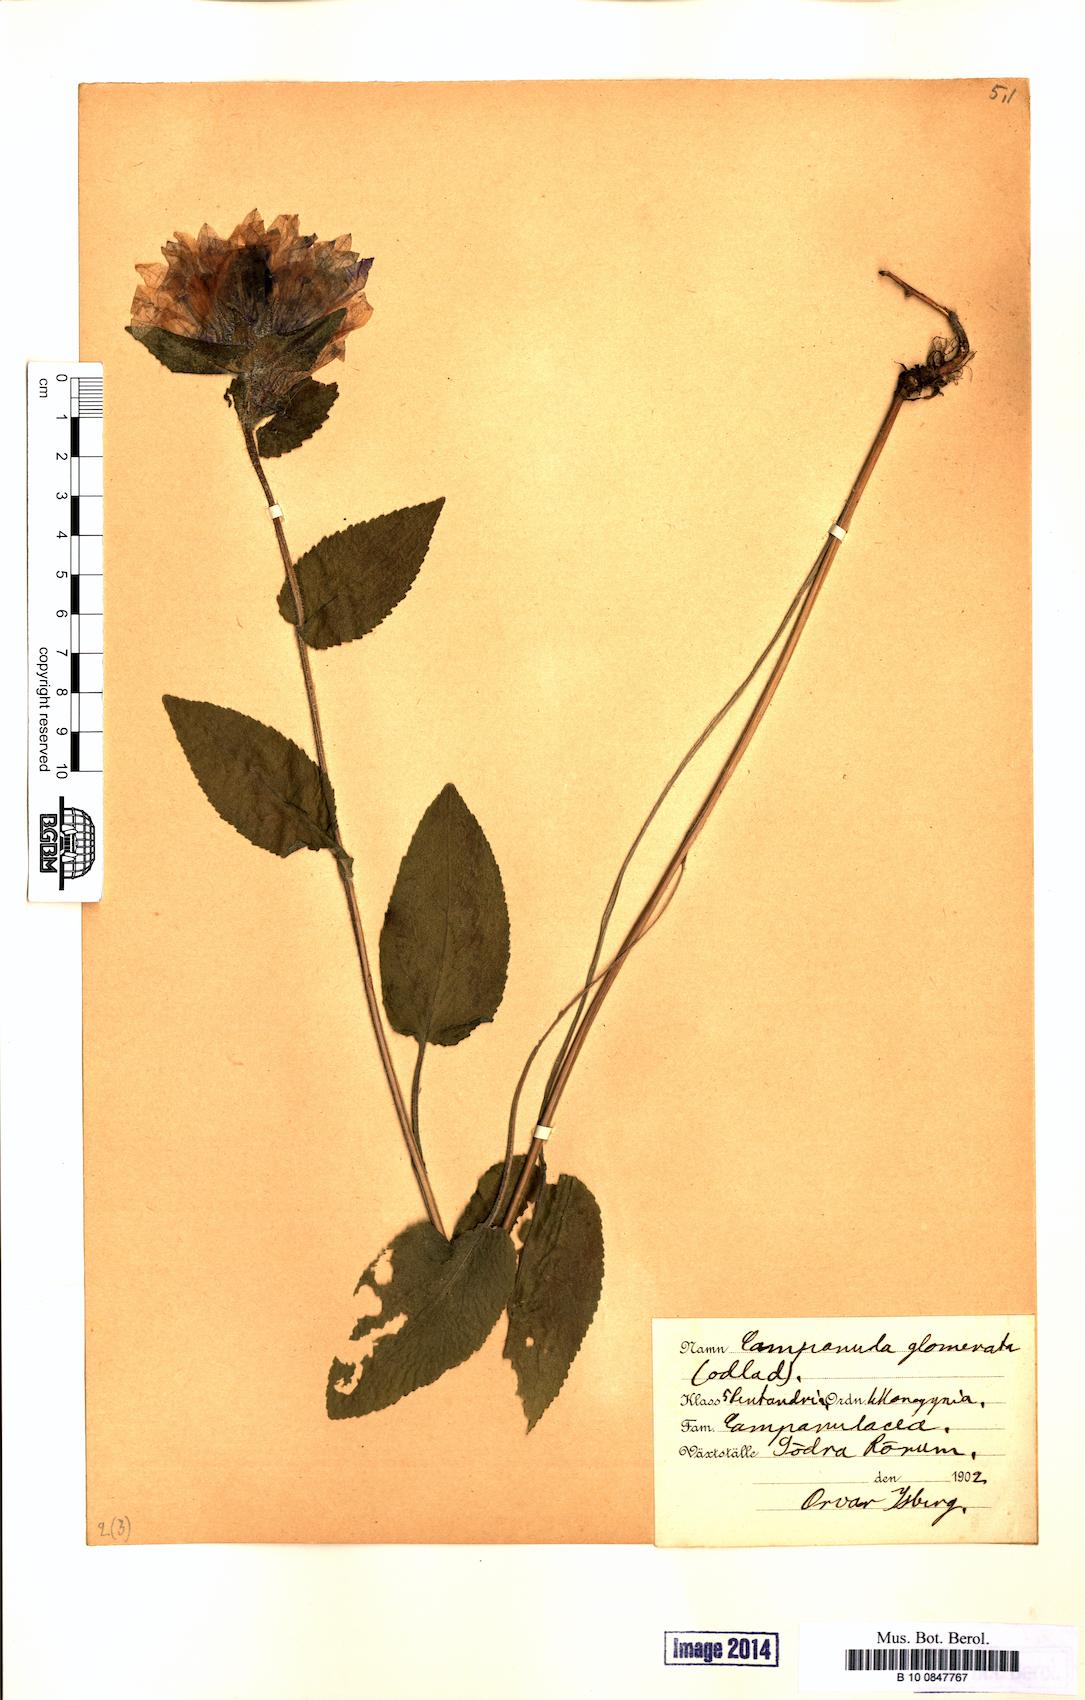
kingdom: Plantae
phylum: Tracheophyta
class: Magnoliopsida
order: Asterales
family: Campanulaceae
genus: Campanula
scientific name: Campanula glomerata
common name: Clustered bellflower
